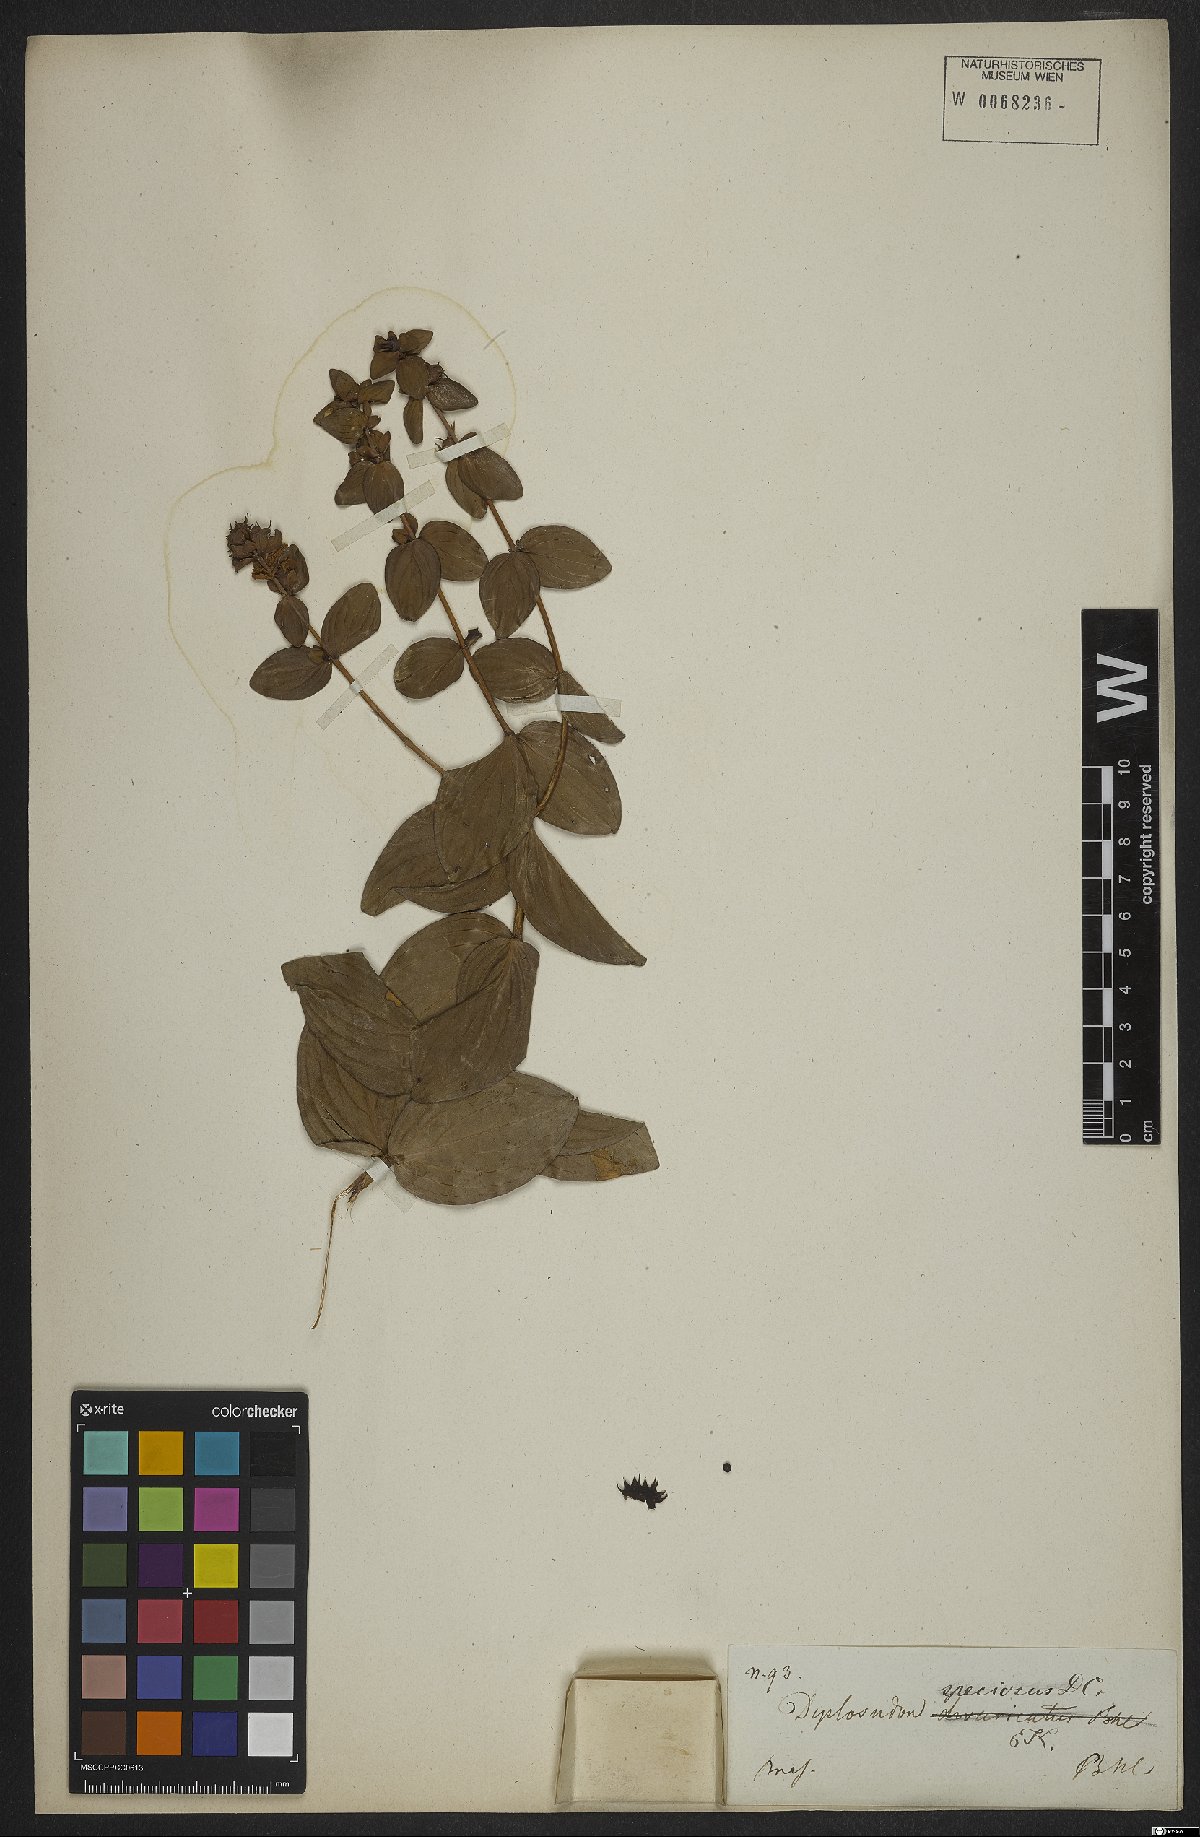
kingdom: Plantae
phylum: Tracheophyta
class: Magnoliopsida
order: Myrtales
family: Lythraceae
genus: Cuphea
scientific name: Cuphea llavea
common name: Tiny-mice
